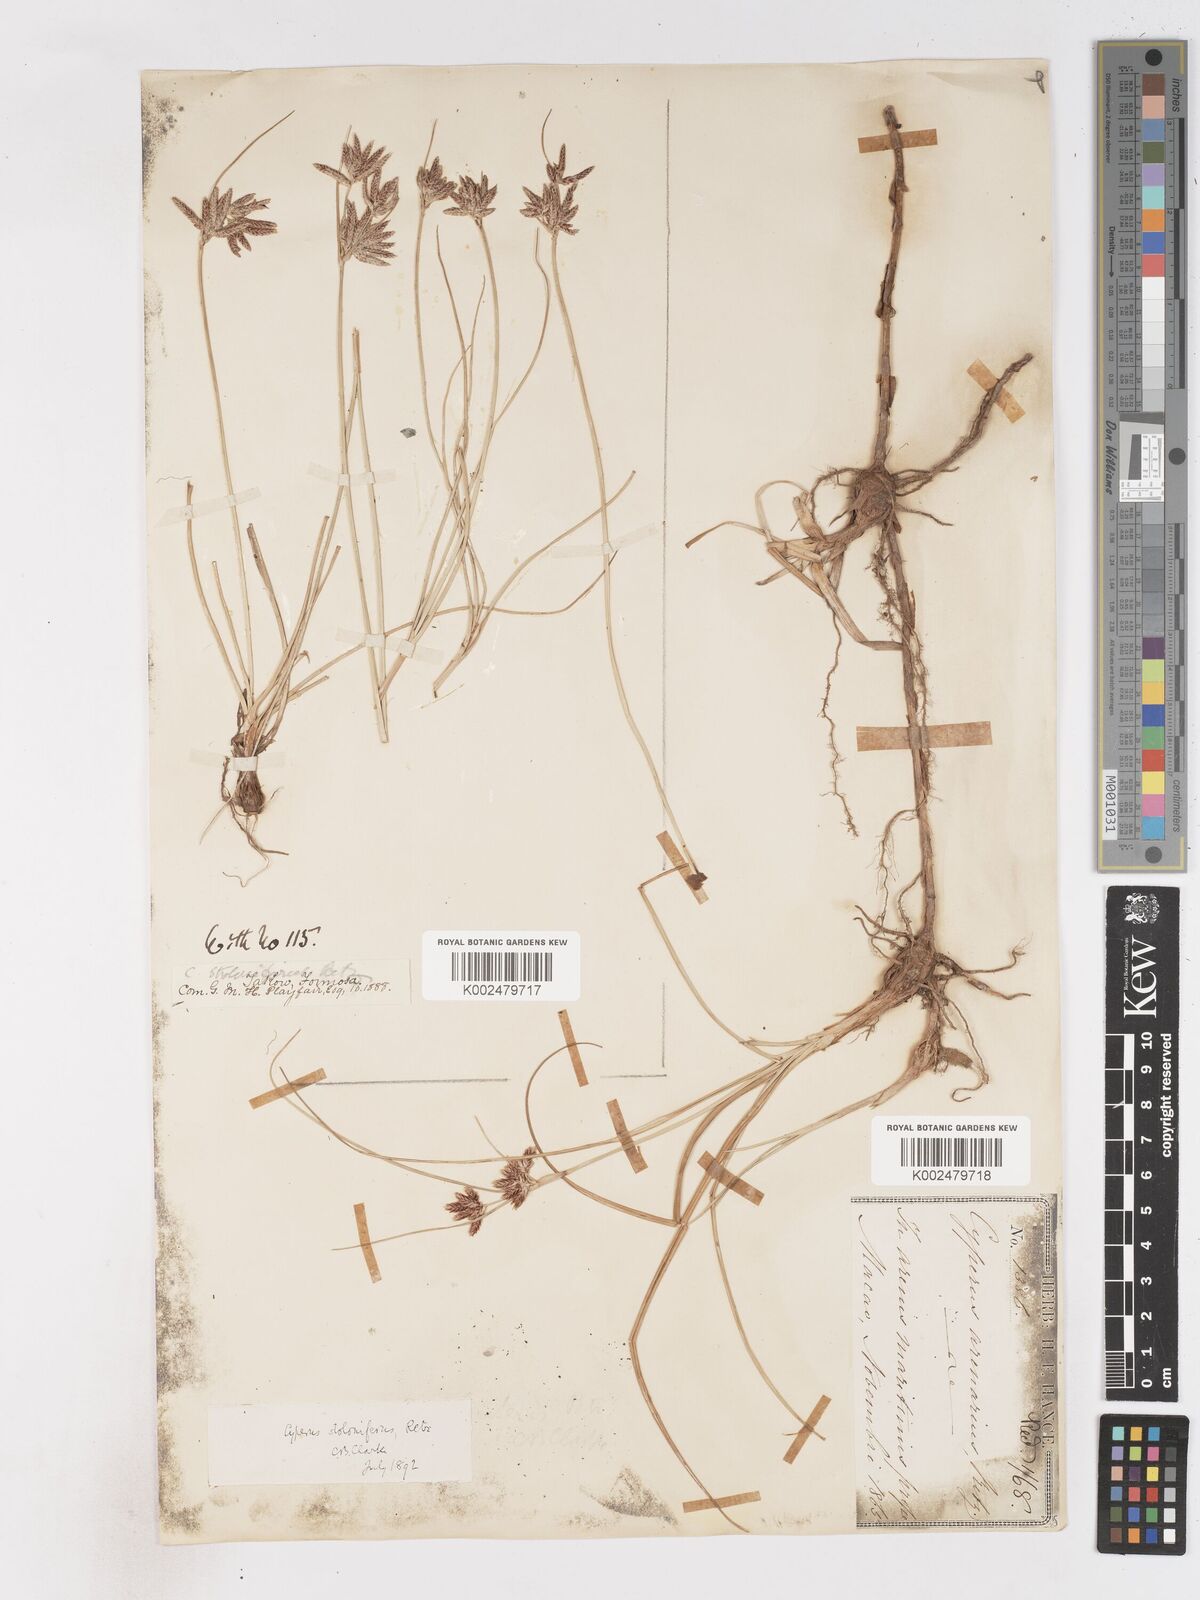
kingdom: Plantae
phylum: Tracheophyta
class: Liliopsida
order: Poales
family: Cyperaceae
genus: Cyperus
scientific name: Cyperus stolonifer
